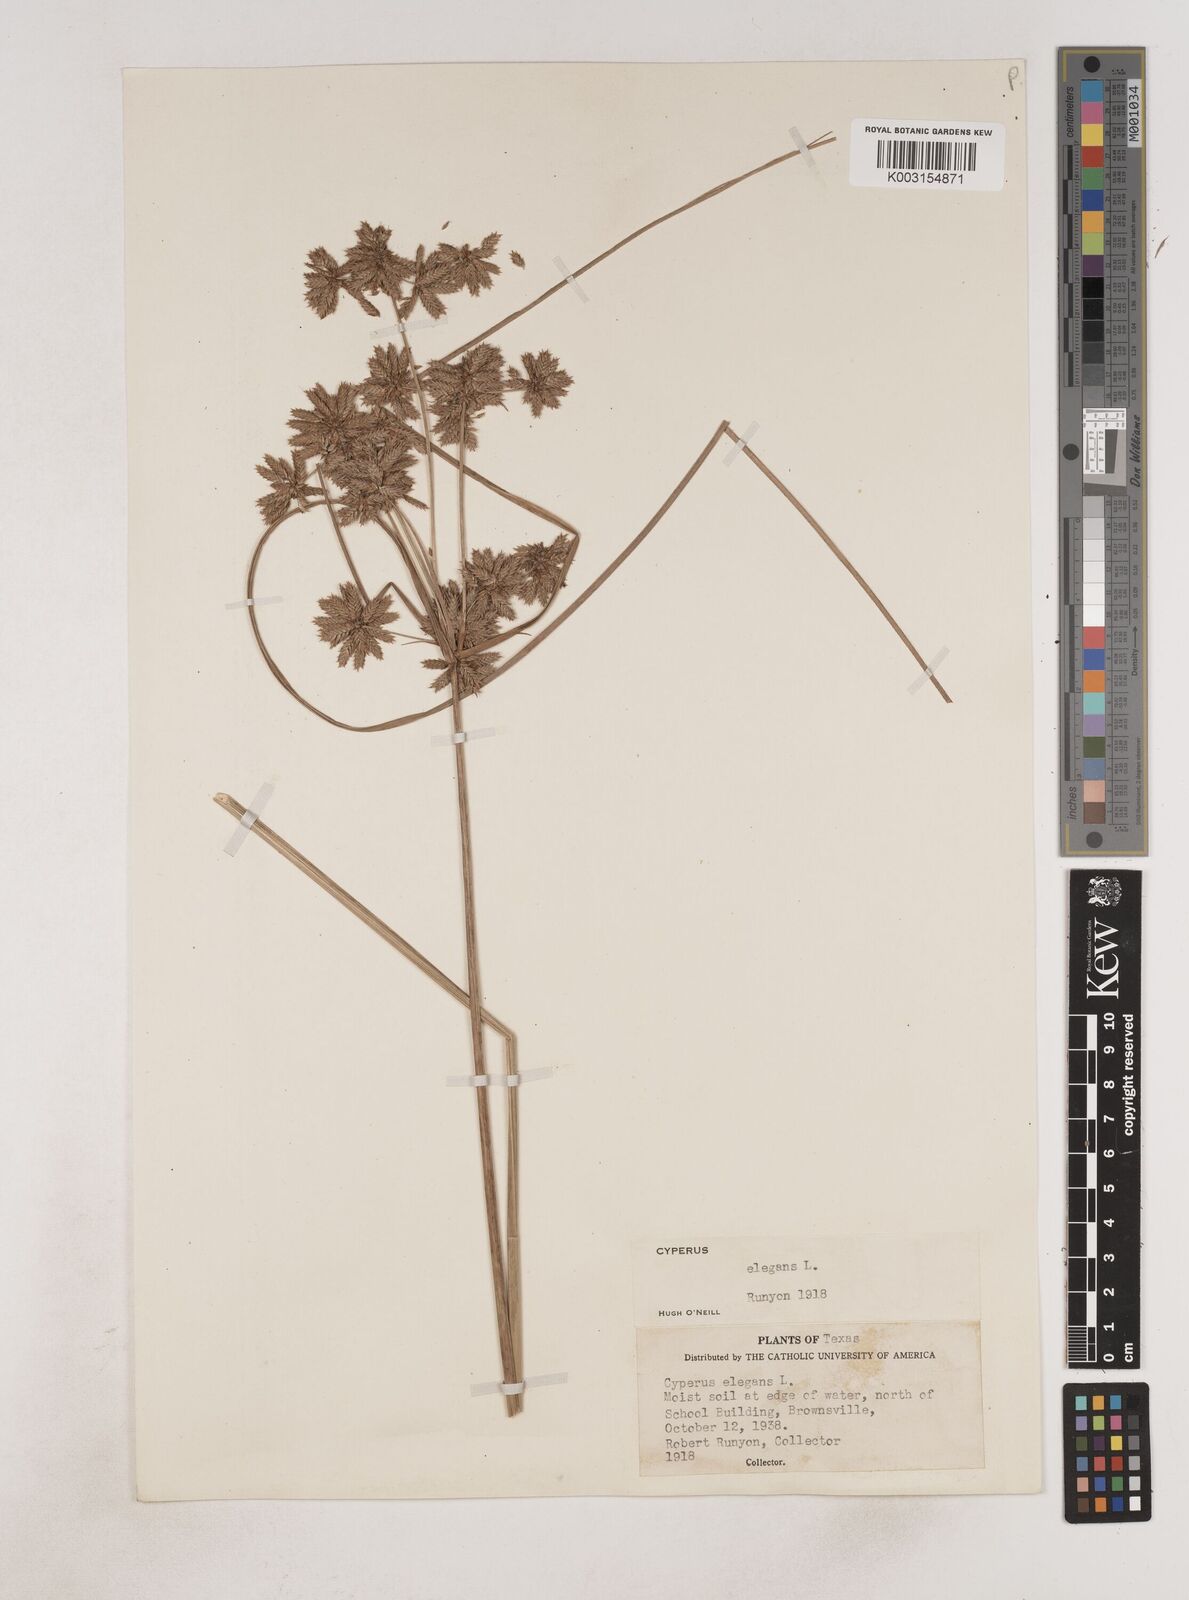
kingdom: Plantae
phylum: Tracheophyta
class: Liliopsida
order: Poales
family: Cyperaceae
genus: Cyperus
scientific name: Cyperus elegans
